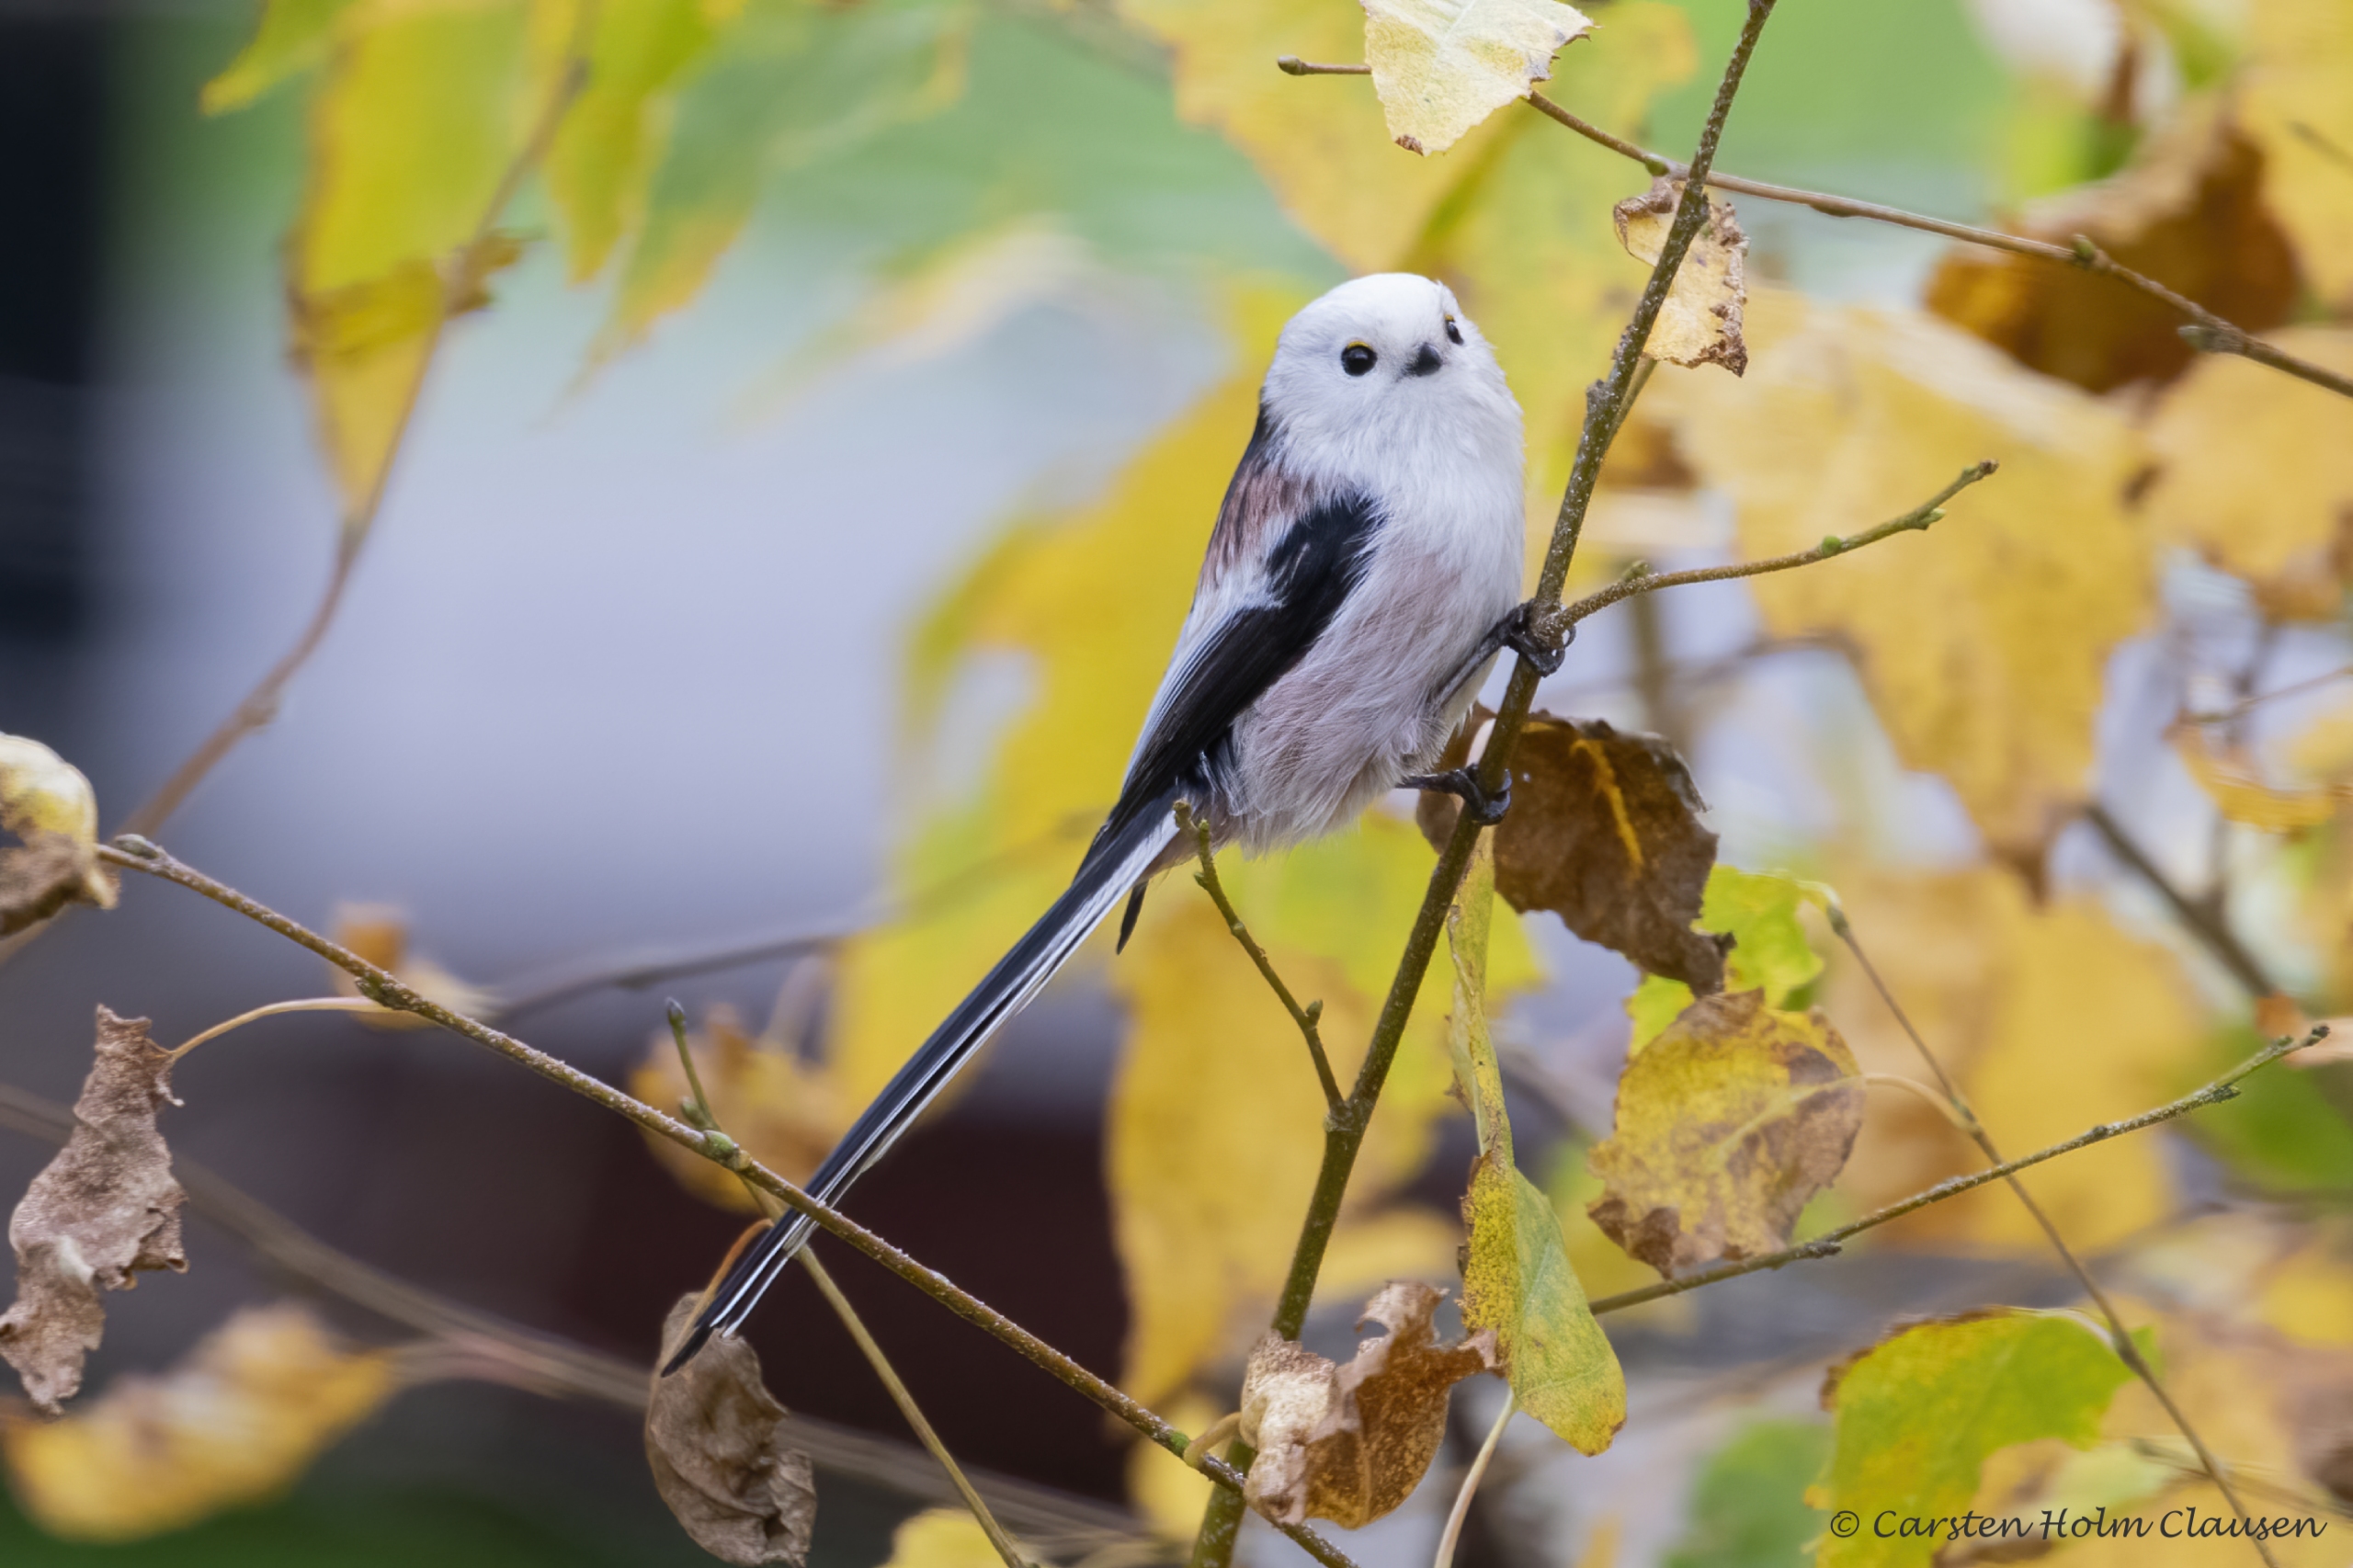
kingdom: Animalia
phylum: Chordata
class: Aves
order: Passeriformes
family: Aegithalidae
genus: Aegithalos
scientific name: Aegithalos caudatus
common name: Nordlig halemejse
